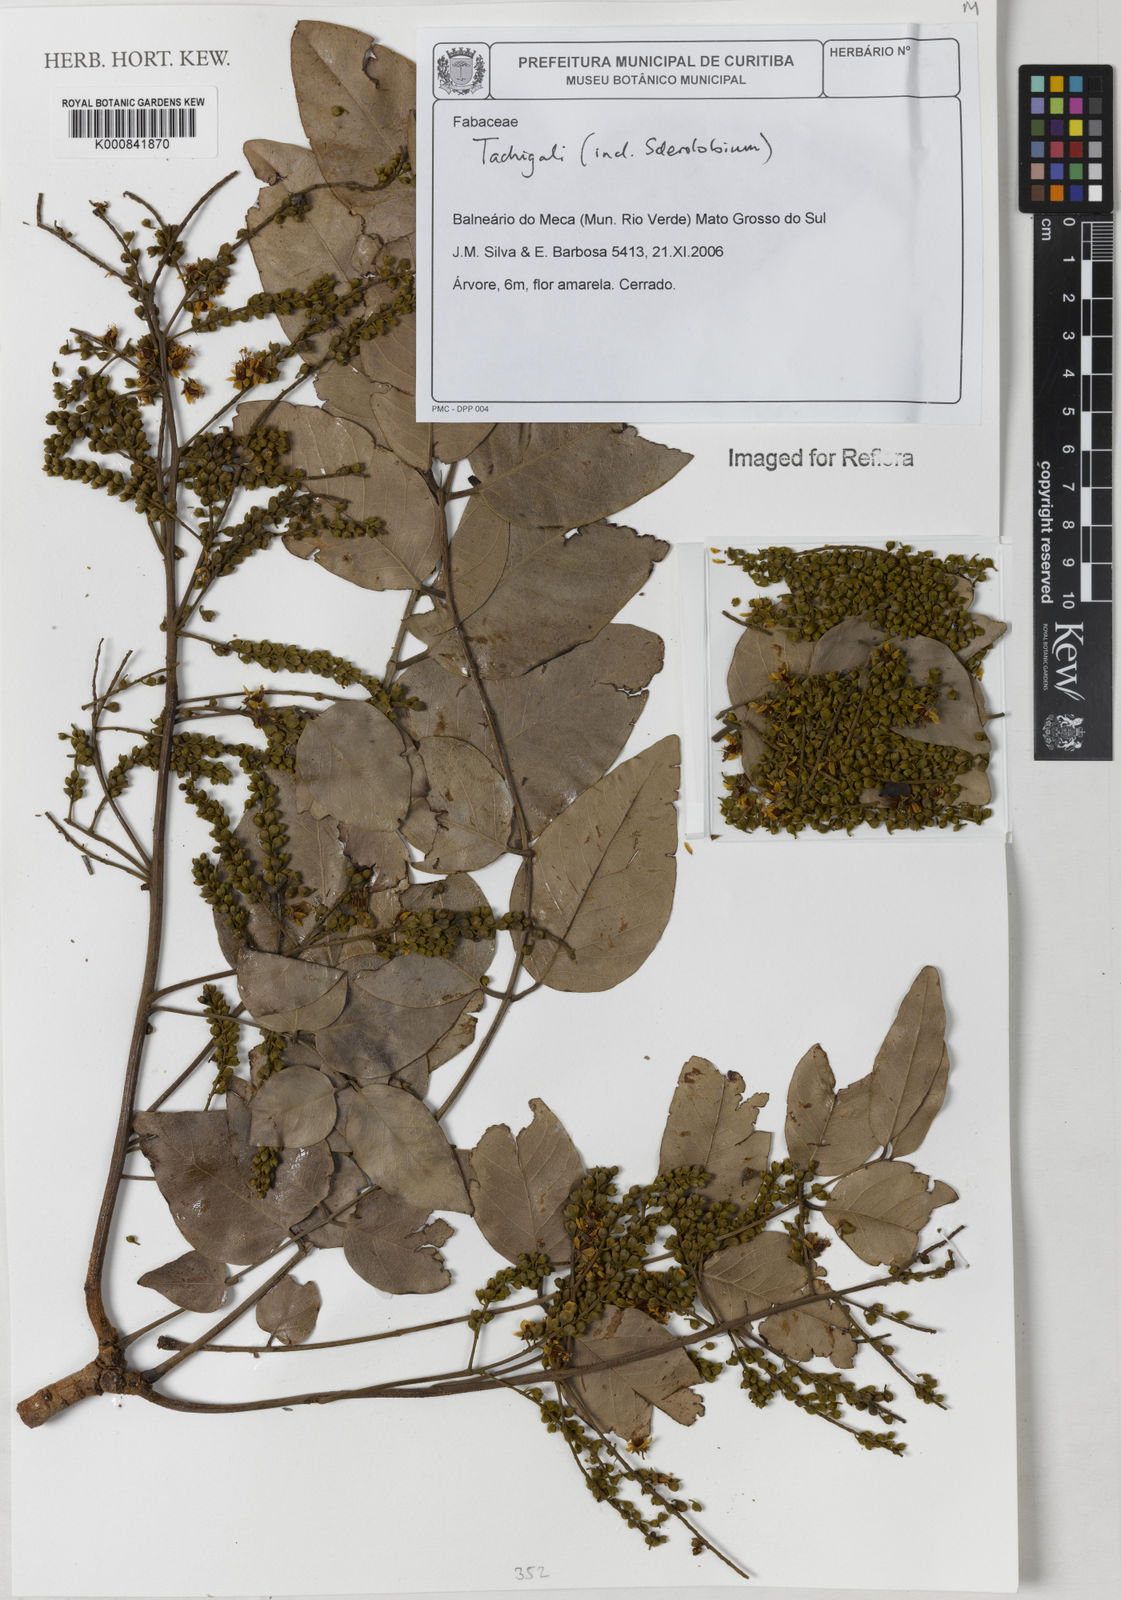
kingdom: Plantae
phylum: Tracheophyta
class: Magnoliopsida
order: Fabales
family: Fabaceae
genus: Tachigali
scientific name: Tachigali
